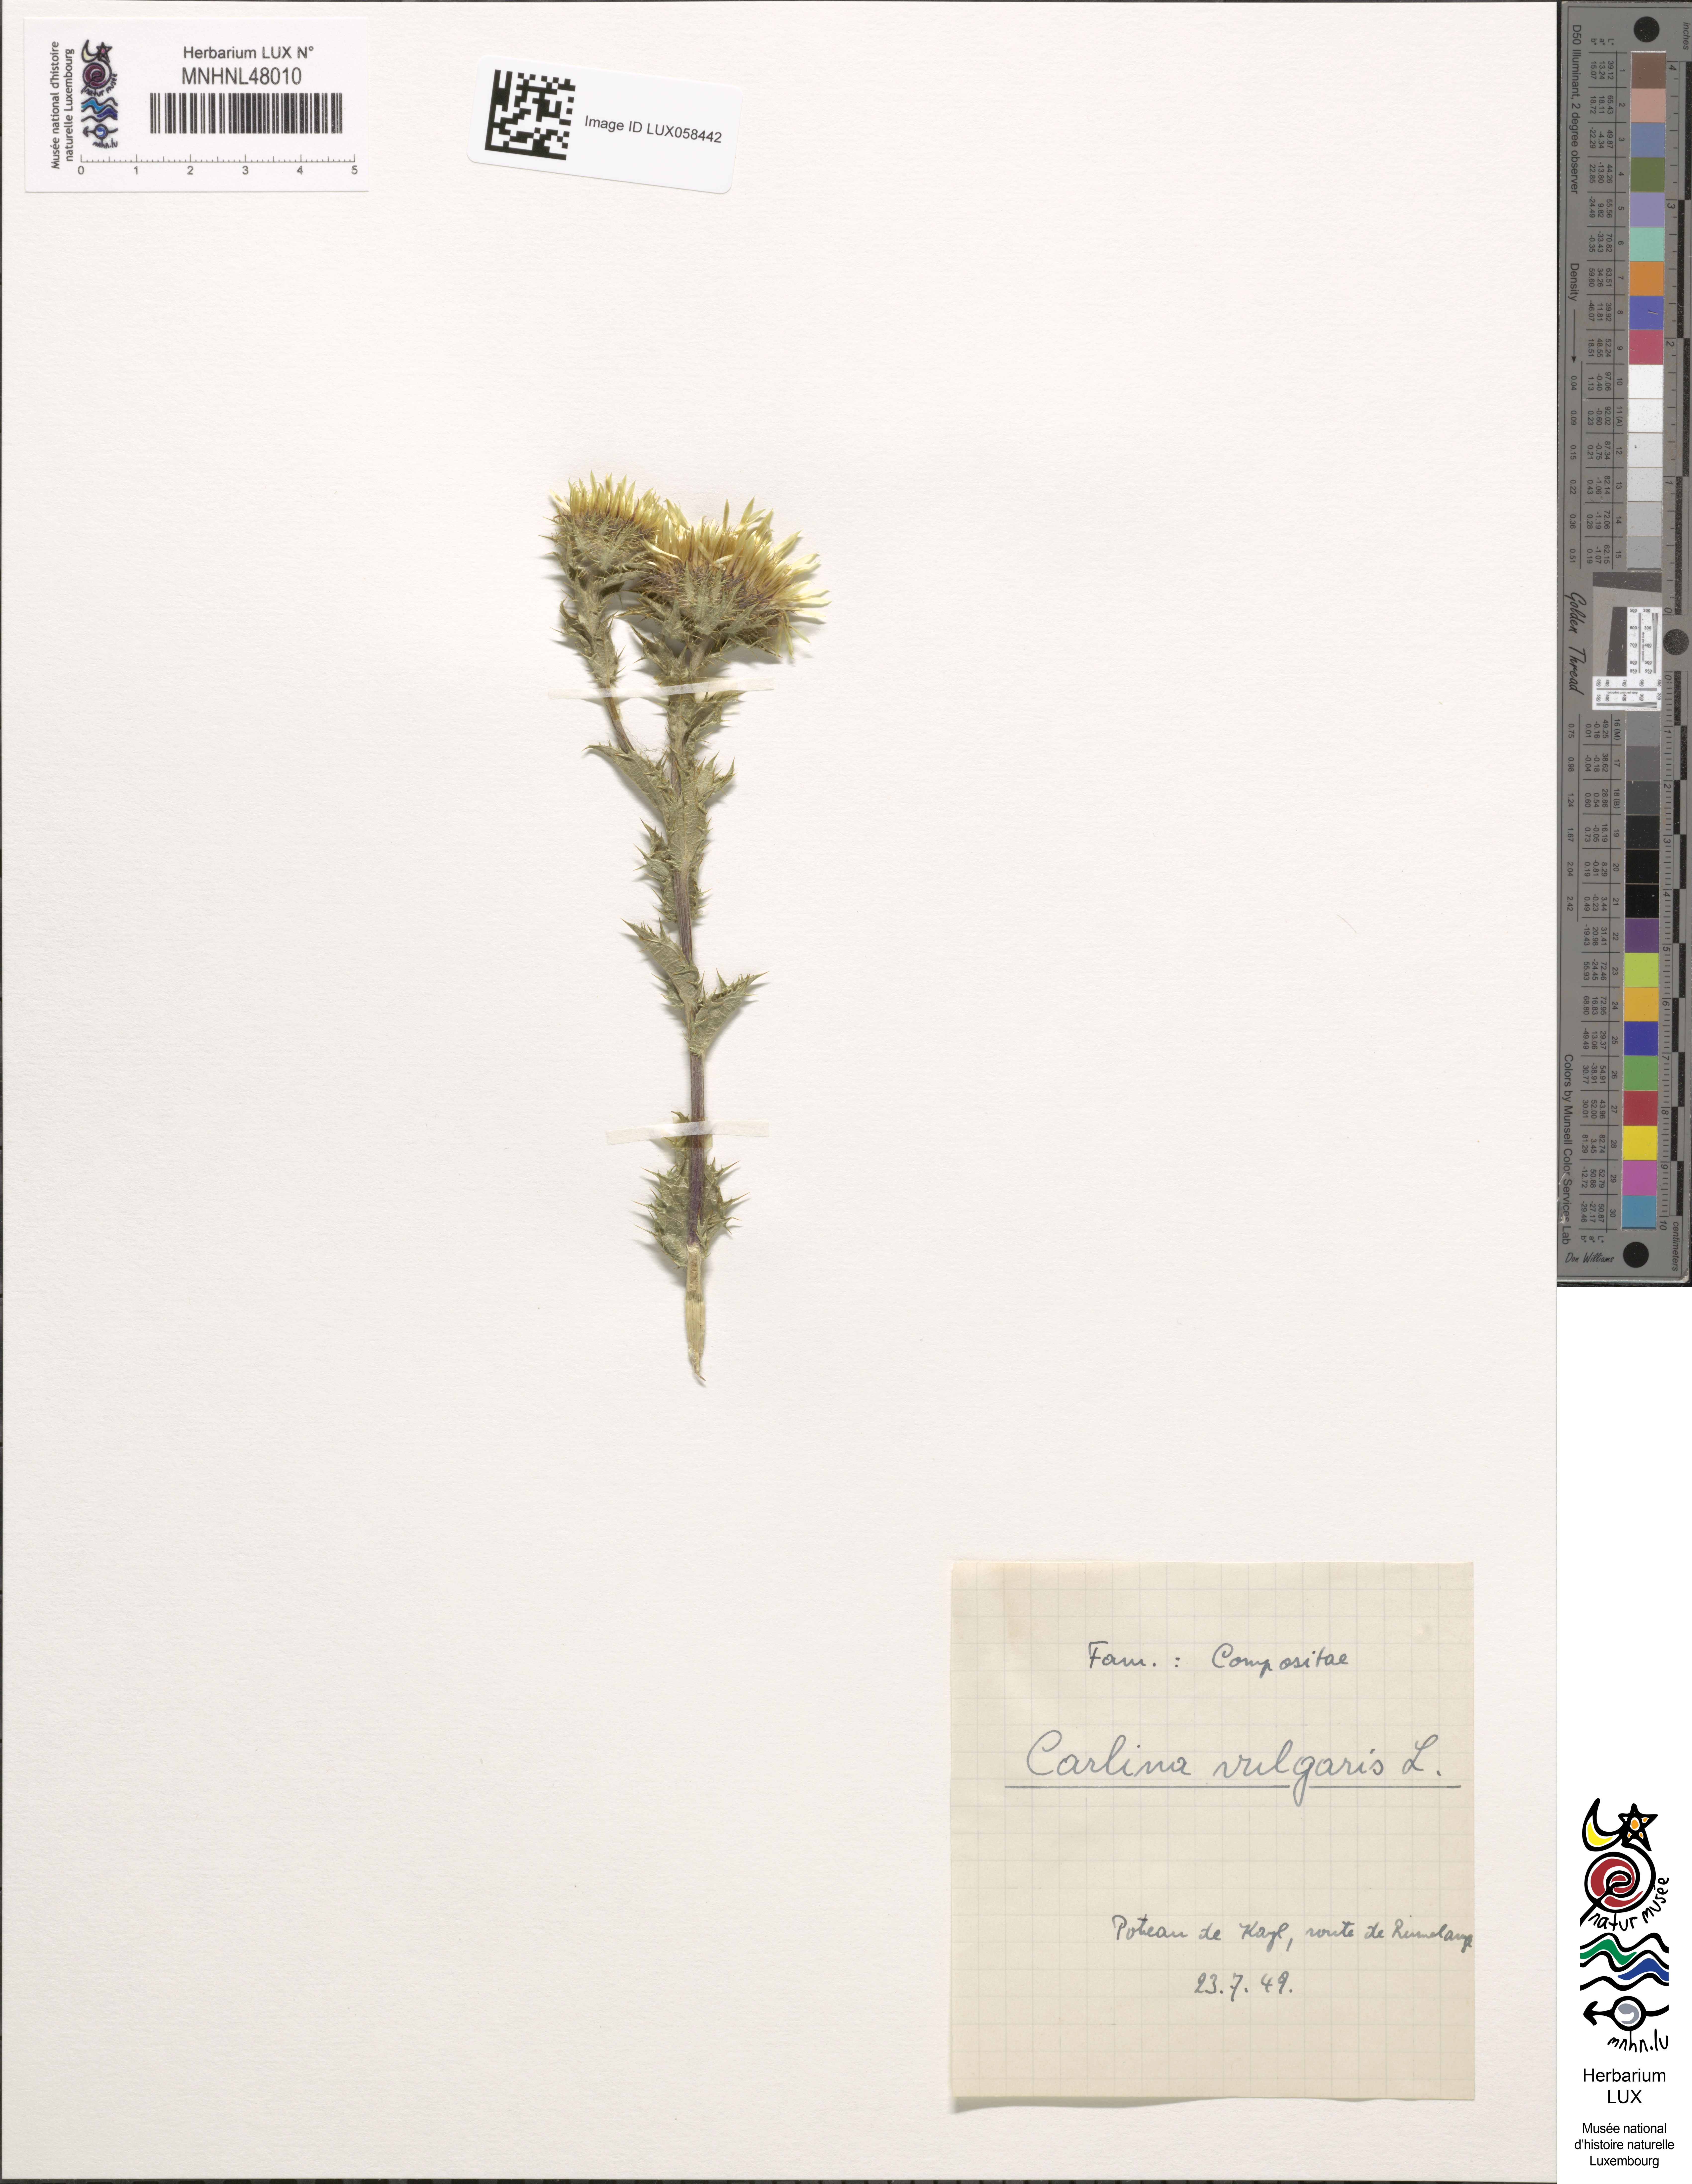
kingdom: Plantae
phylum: Tracheophyta
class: Magnoliopsida
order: Asterales
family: Asteraceae
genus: Carlina
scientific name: Carlina vulgaris
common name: Carline thistle
